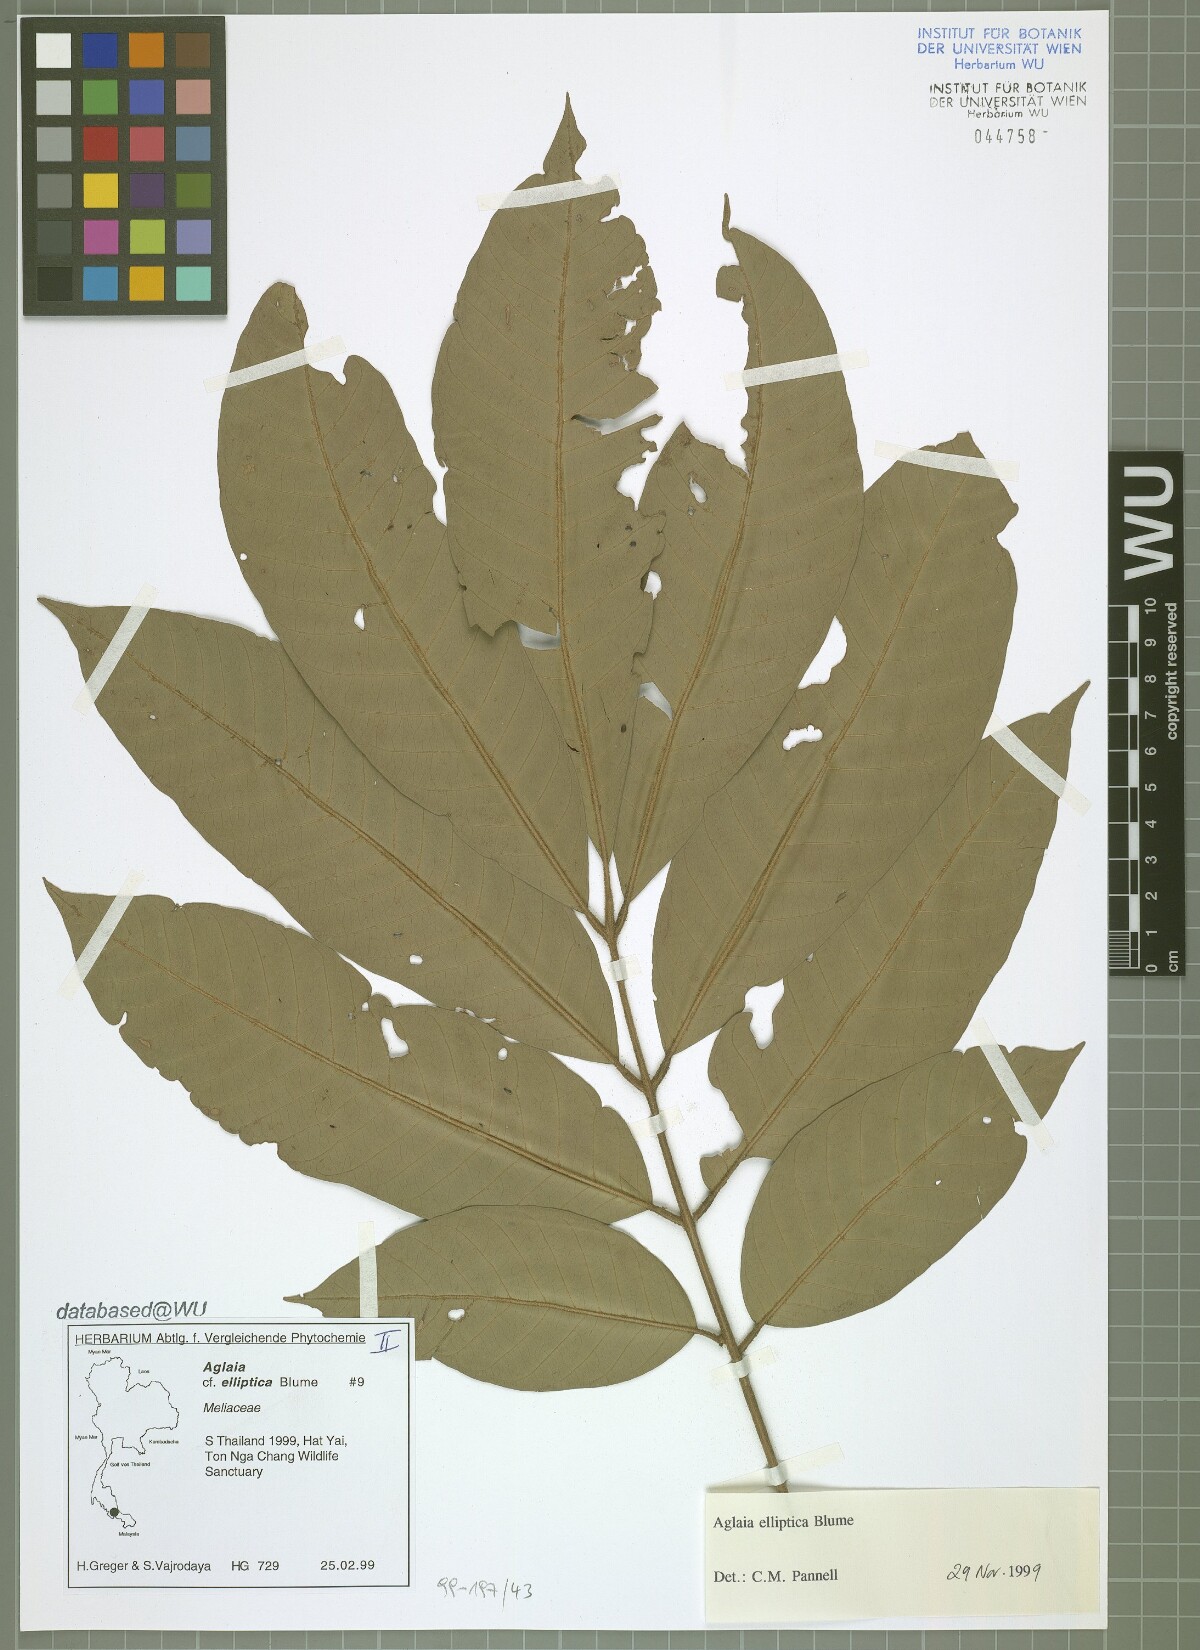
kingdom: Plantae
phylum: Tracheophyta
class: Magnoliopsida
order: Sapindales
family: Meliaceae
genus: Aglaia
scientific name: Aglaia elliptica
